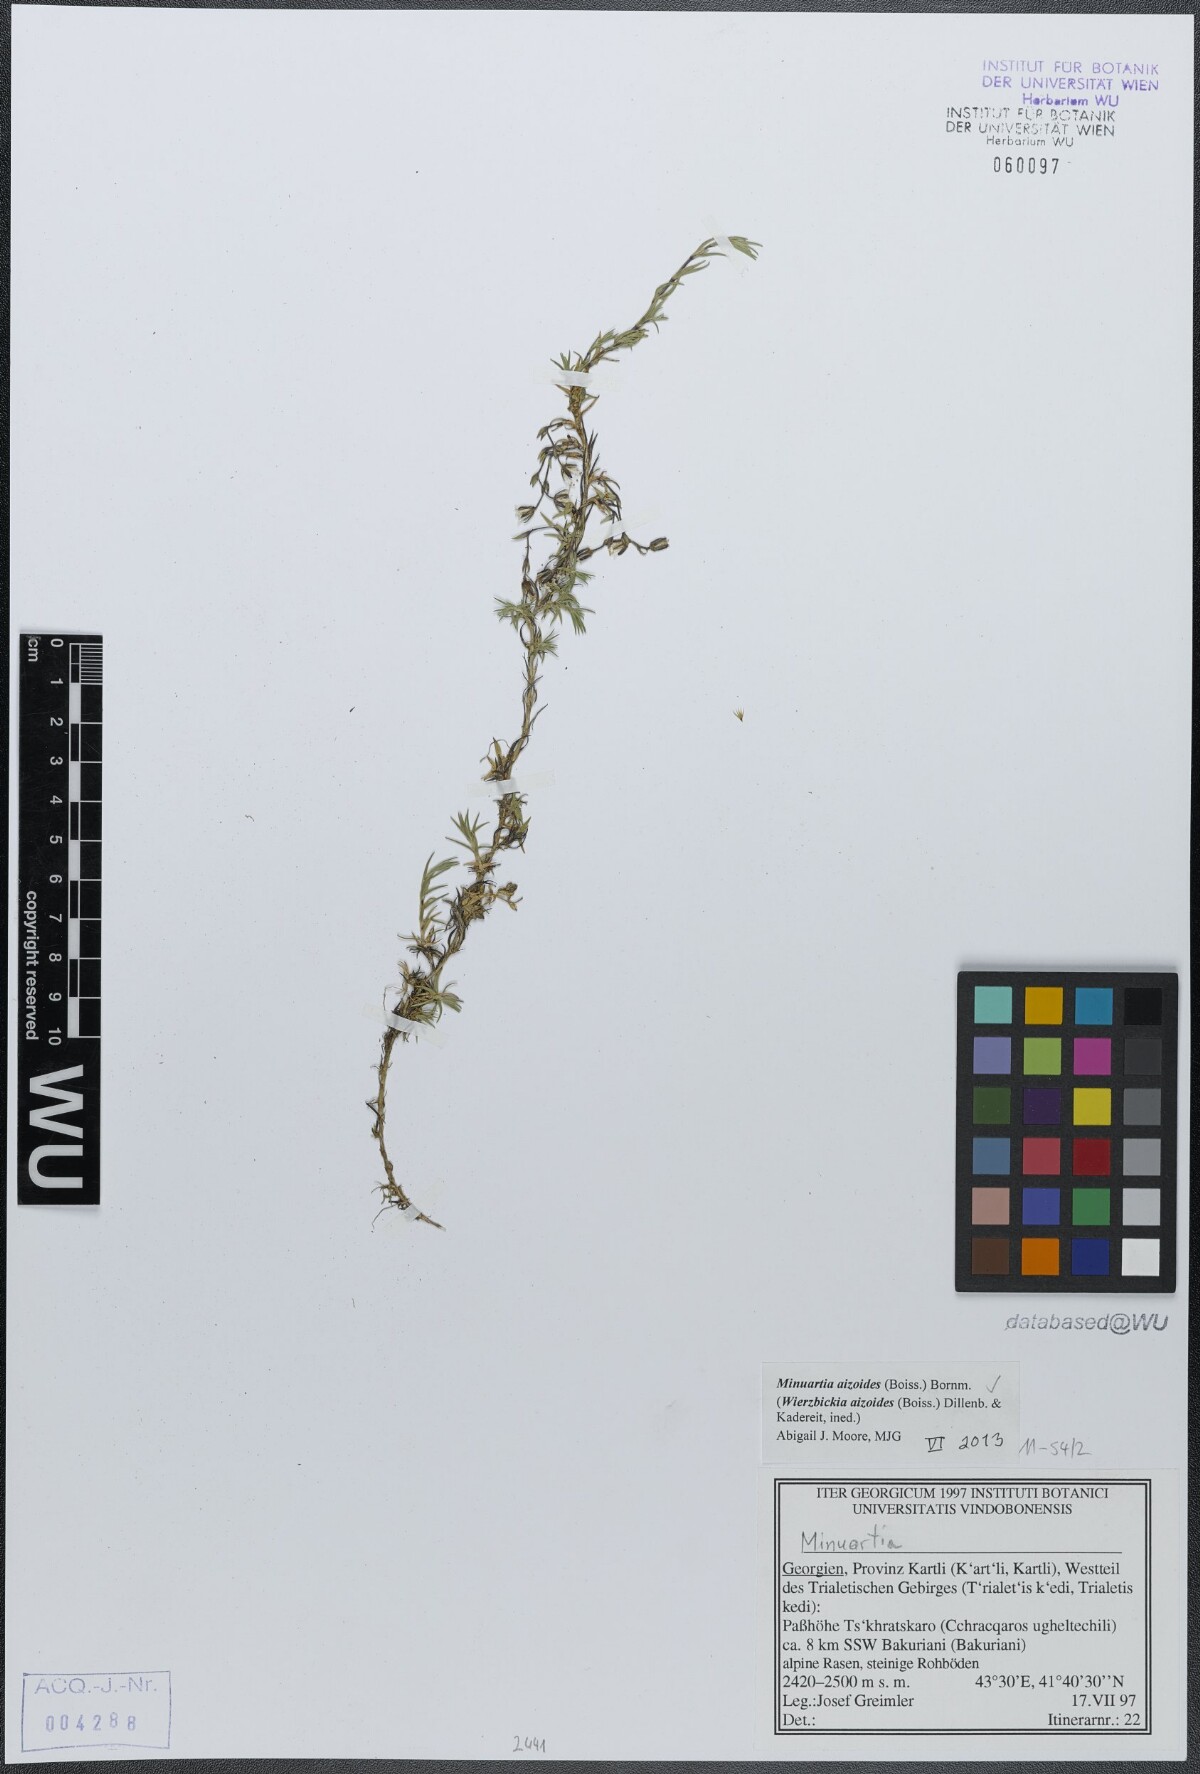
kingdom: Plantae
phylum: Tracheophyta
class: Magnoliopsida
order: Caryophyllales
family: Caryophyllaceae
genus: Pseudocherleria
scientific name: Pseudocherleria aizoides
